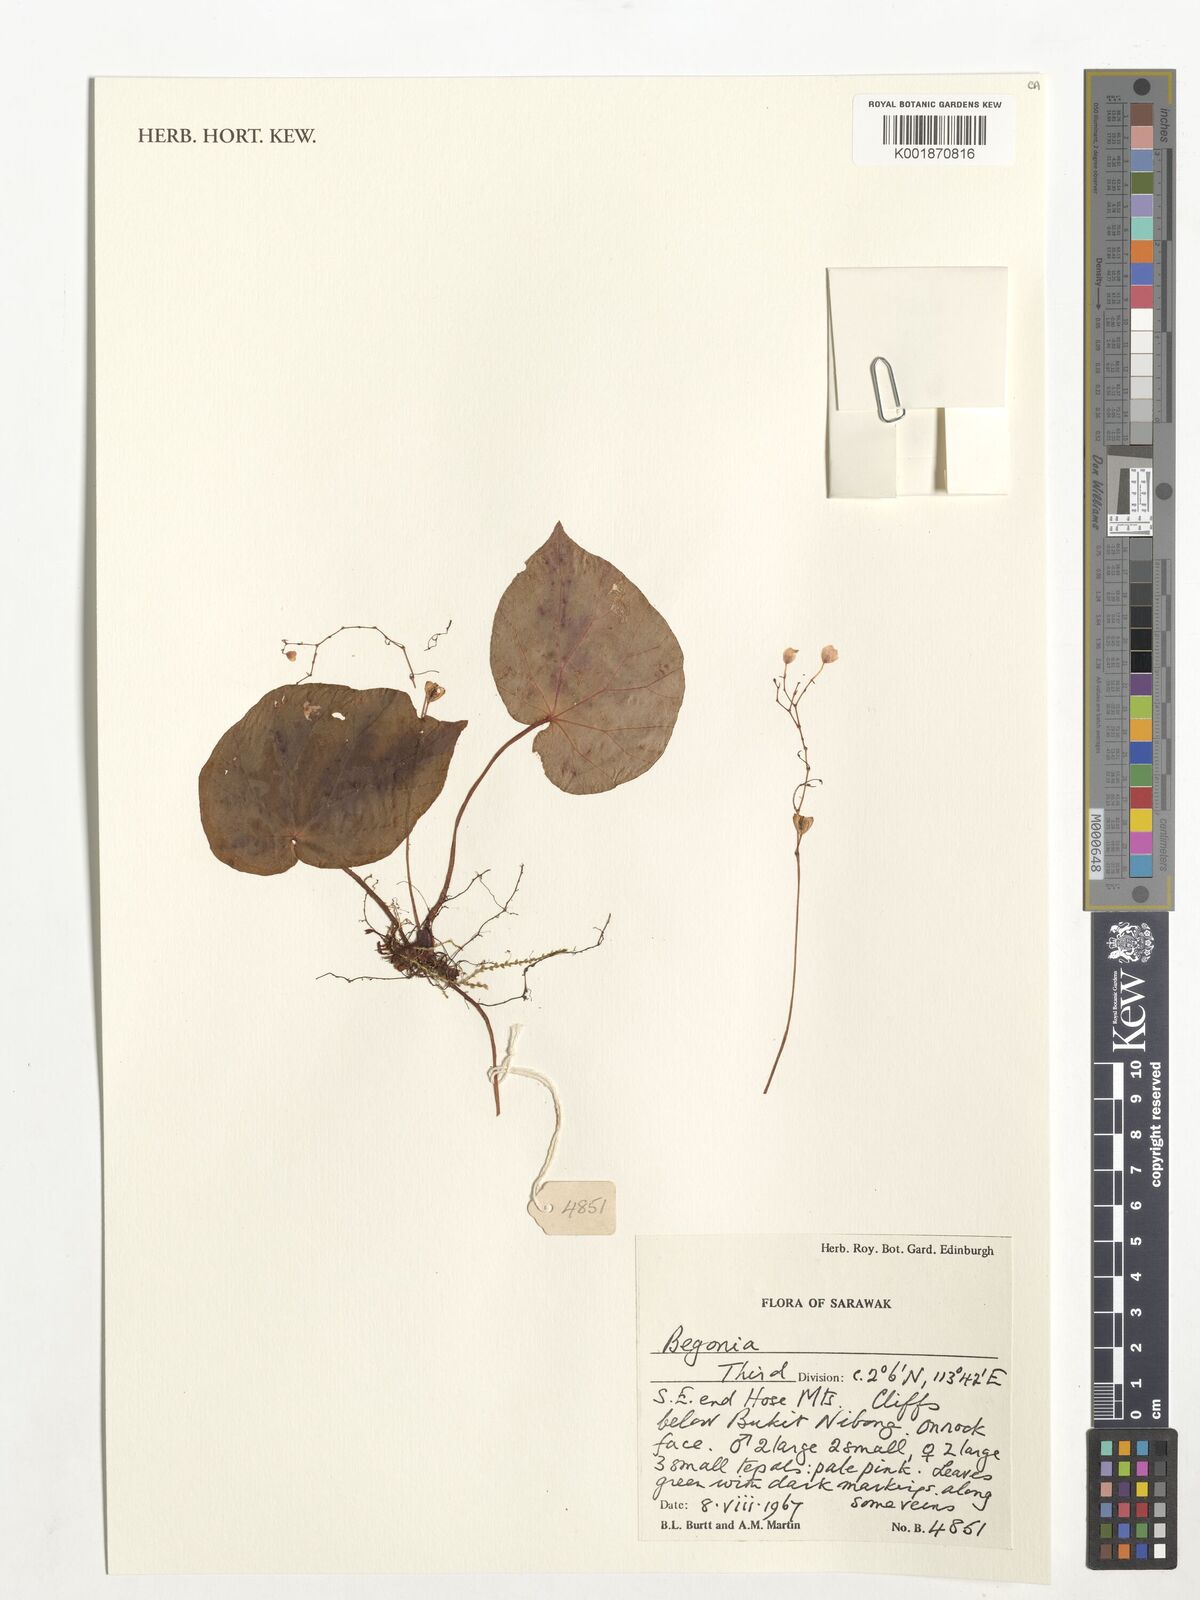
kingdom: Plantae
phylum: Tracheophyta
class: Magnoliopsida
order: Cucurbitales
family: Begoniaceae
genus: Begonia
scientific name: Begonia
